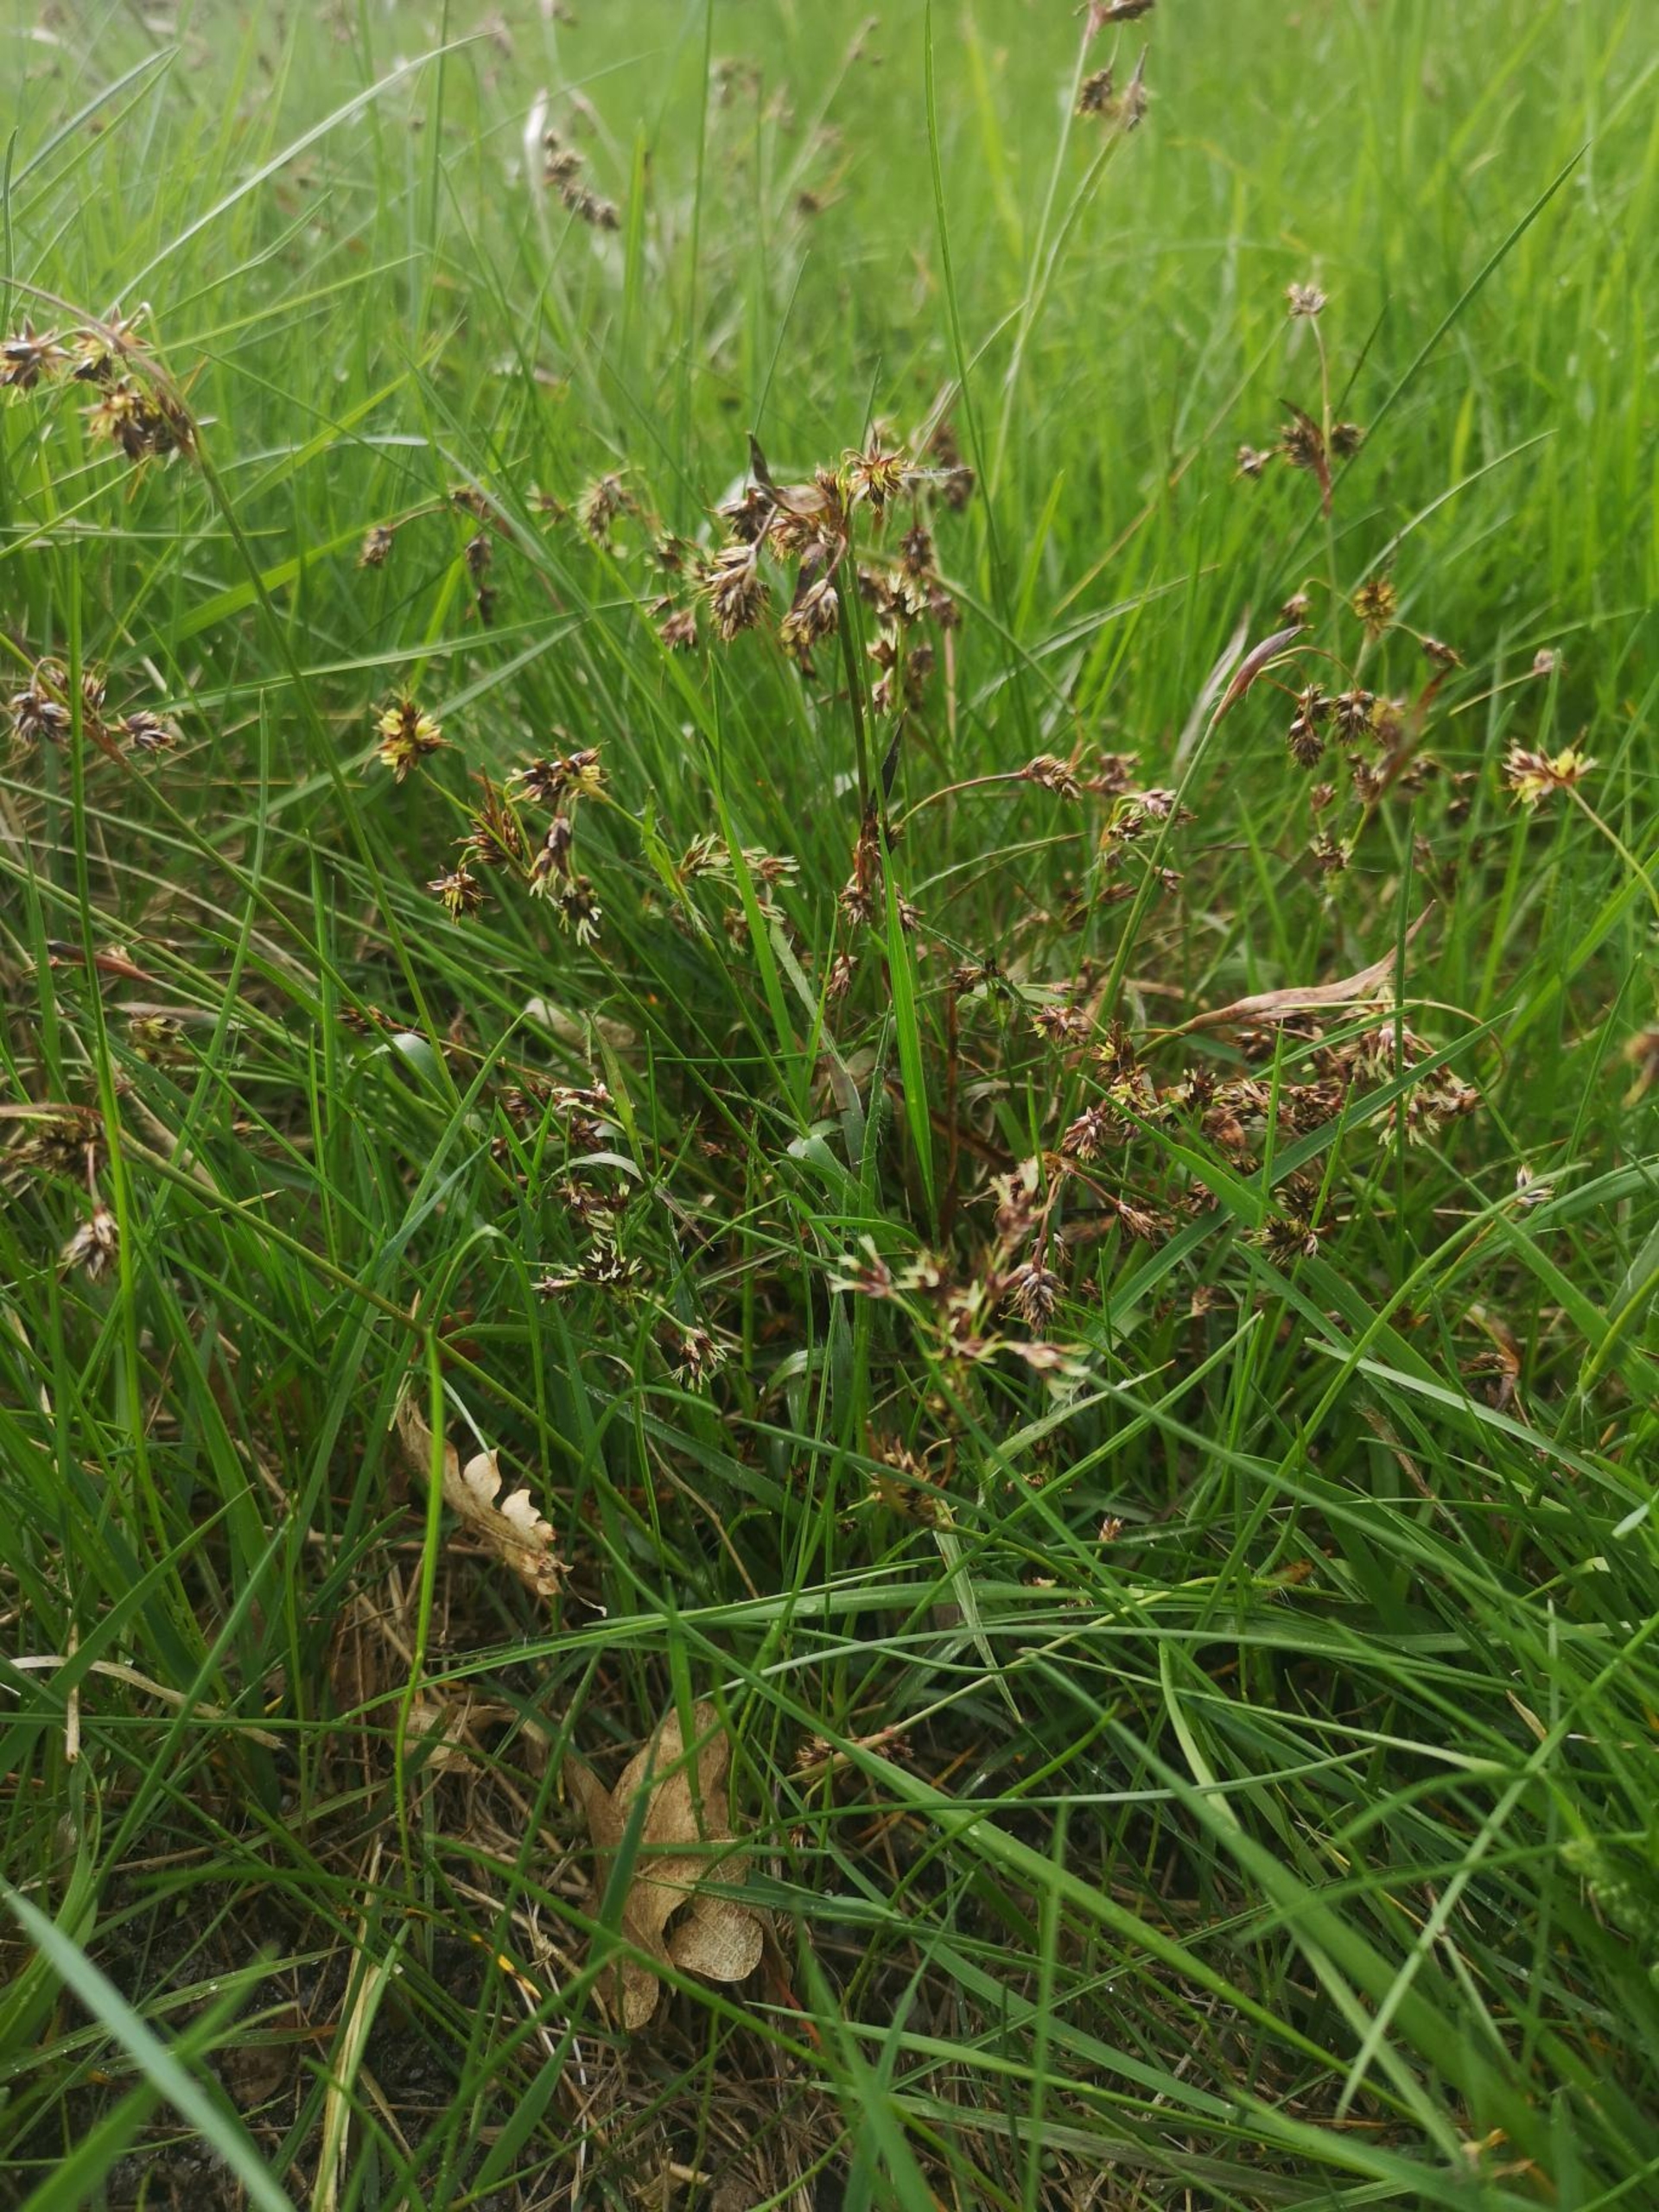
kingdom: Plantae
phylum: Tracheophyta
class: Liliopsida
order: Poales
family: Juncaceae
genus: Luzula
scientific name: Luzula campestris
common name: Mark-frytle
